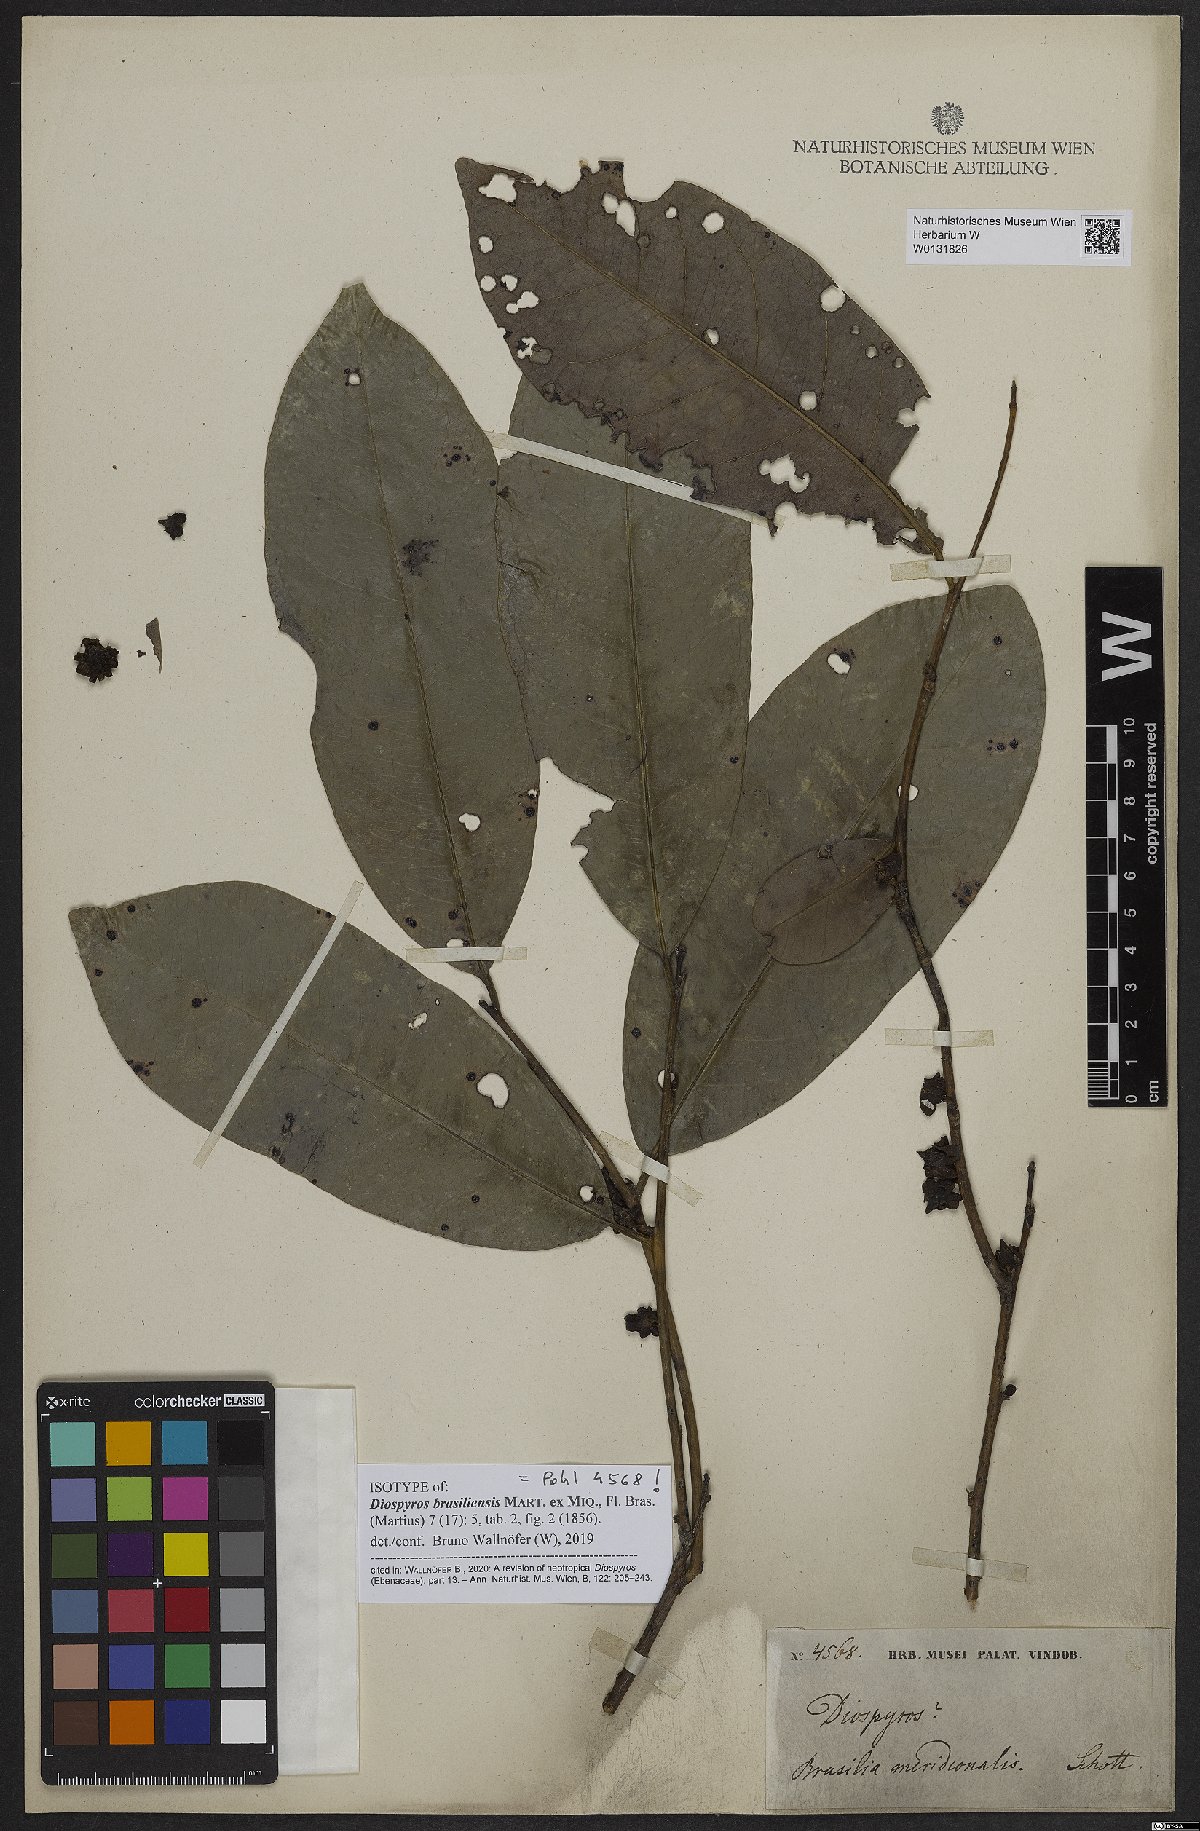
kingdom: Plantae
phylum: Tracheophyta
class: Magnoliopsida
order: Ericales
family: Ebenaceae
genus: Diospyros
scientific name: Diospyros brasiliensis
